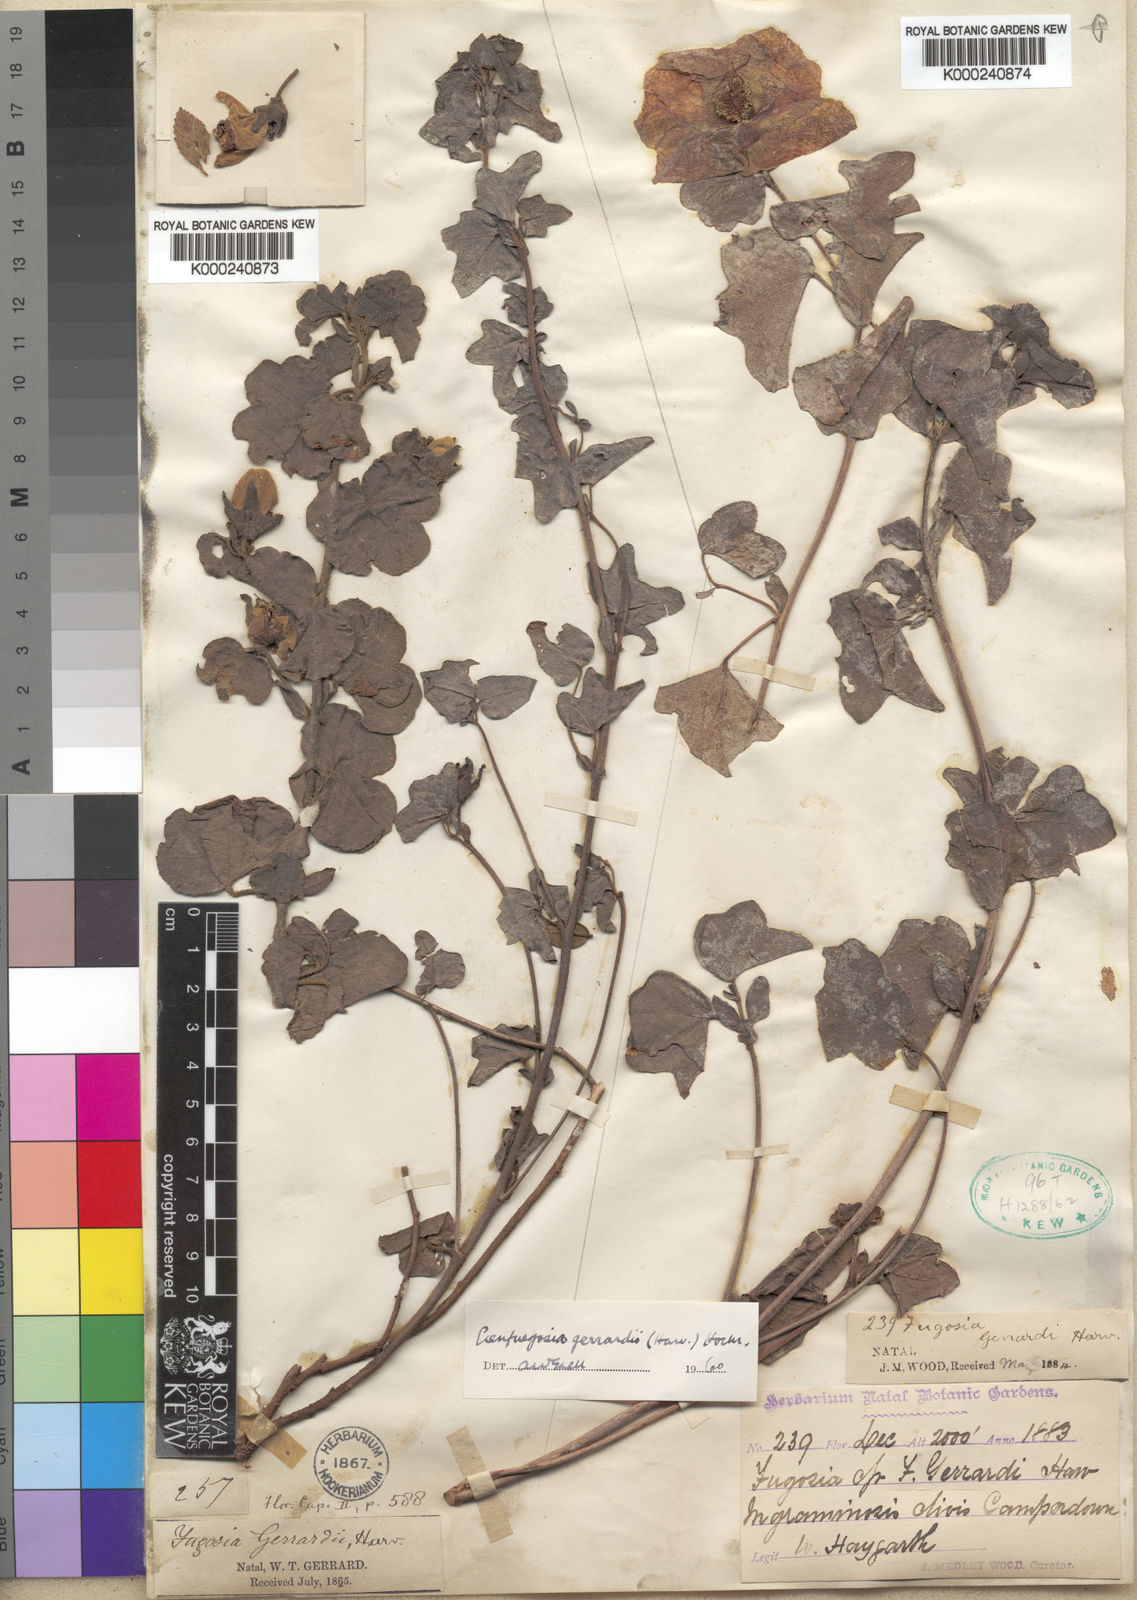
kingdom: Plantae
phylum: Tracheophyta
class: Magnoliopsida
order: Malvales
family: Malvaceae
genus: Cienfuegosia
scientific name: Cienfuegosia gerrardii
